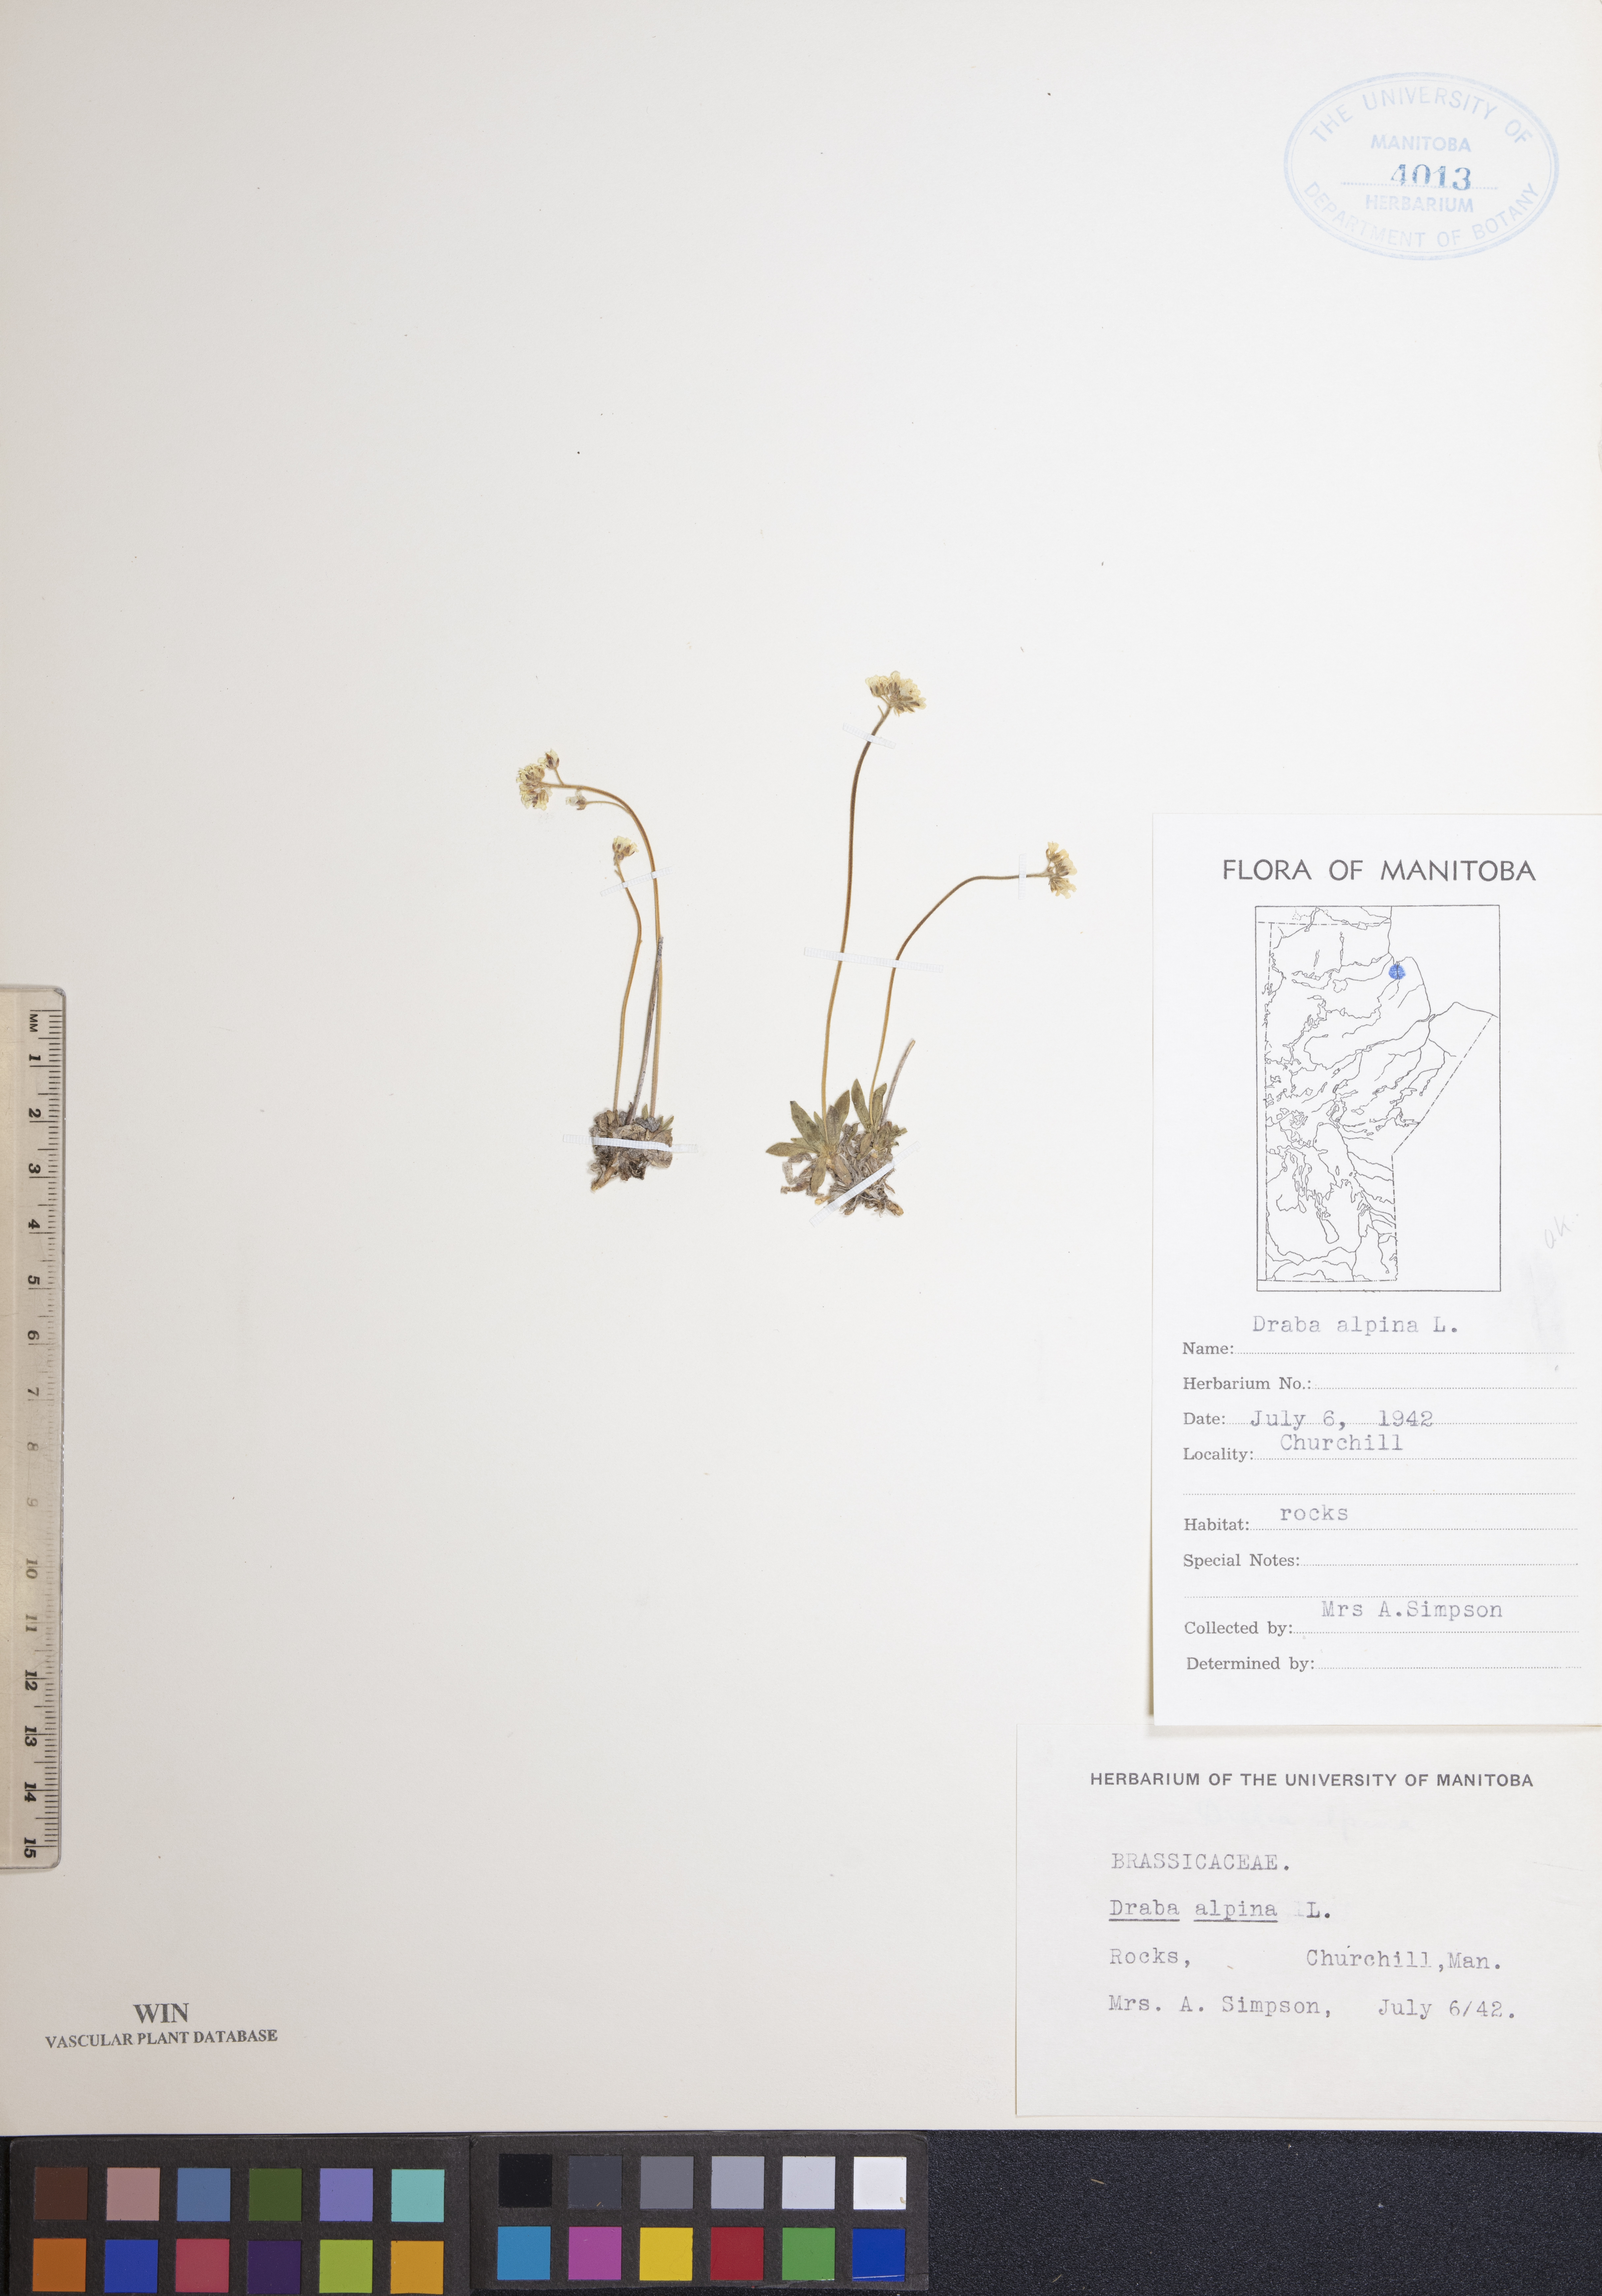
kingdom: Plantae
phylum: Tracheophyta
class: Magnoliopsida
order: Brassicales
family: Brassicaceae
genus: Draba
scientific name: Draba alpina
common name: Alpine draba
